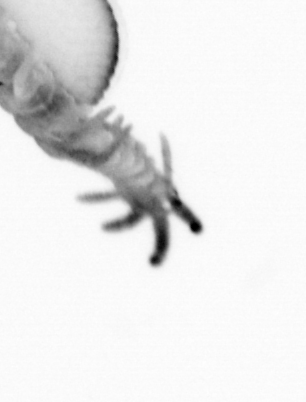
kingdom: Animalia
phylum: Annelida
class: Polychaeta
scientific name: Polychaeta
